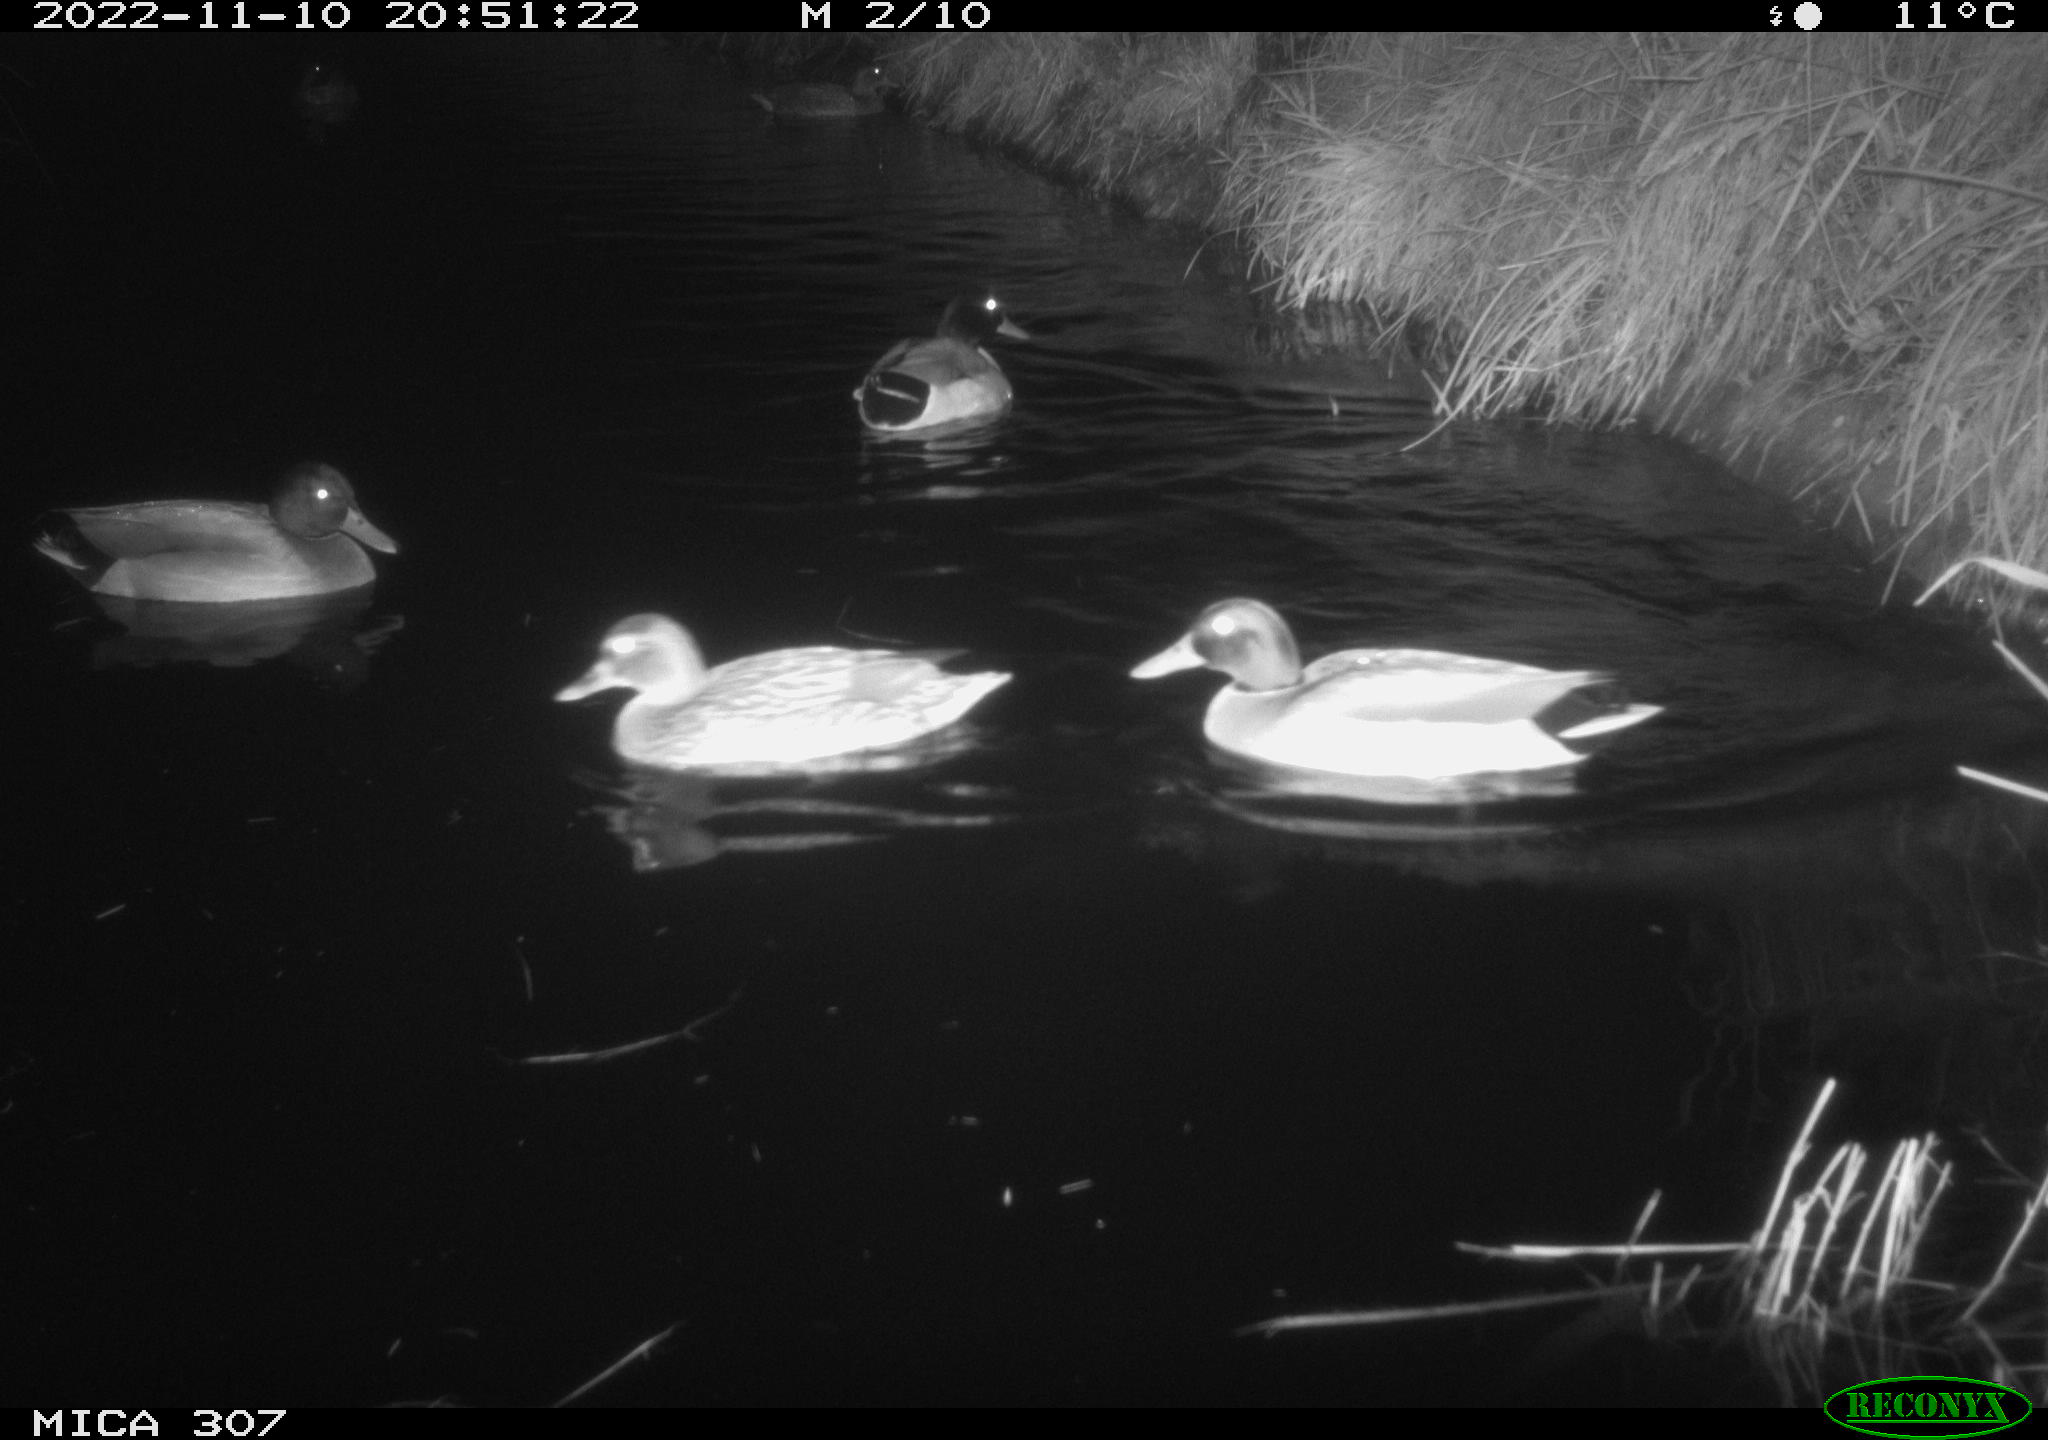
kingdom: Animalia
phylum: Chordata
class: Aves
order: Anseriformes
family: Anatidae
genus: Anas
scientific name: Anas
